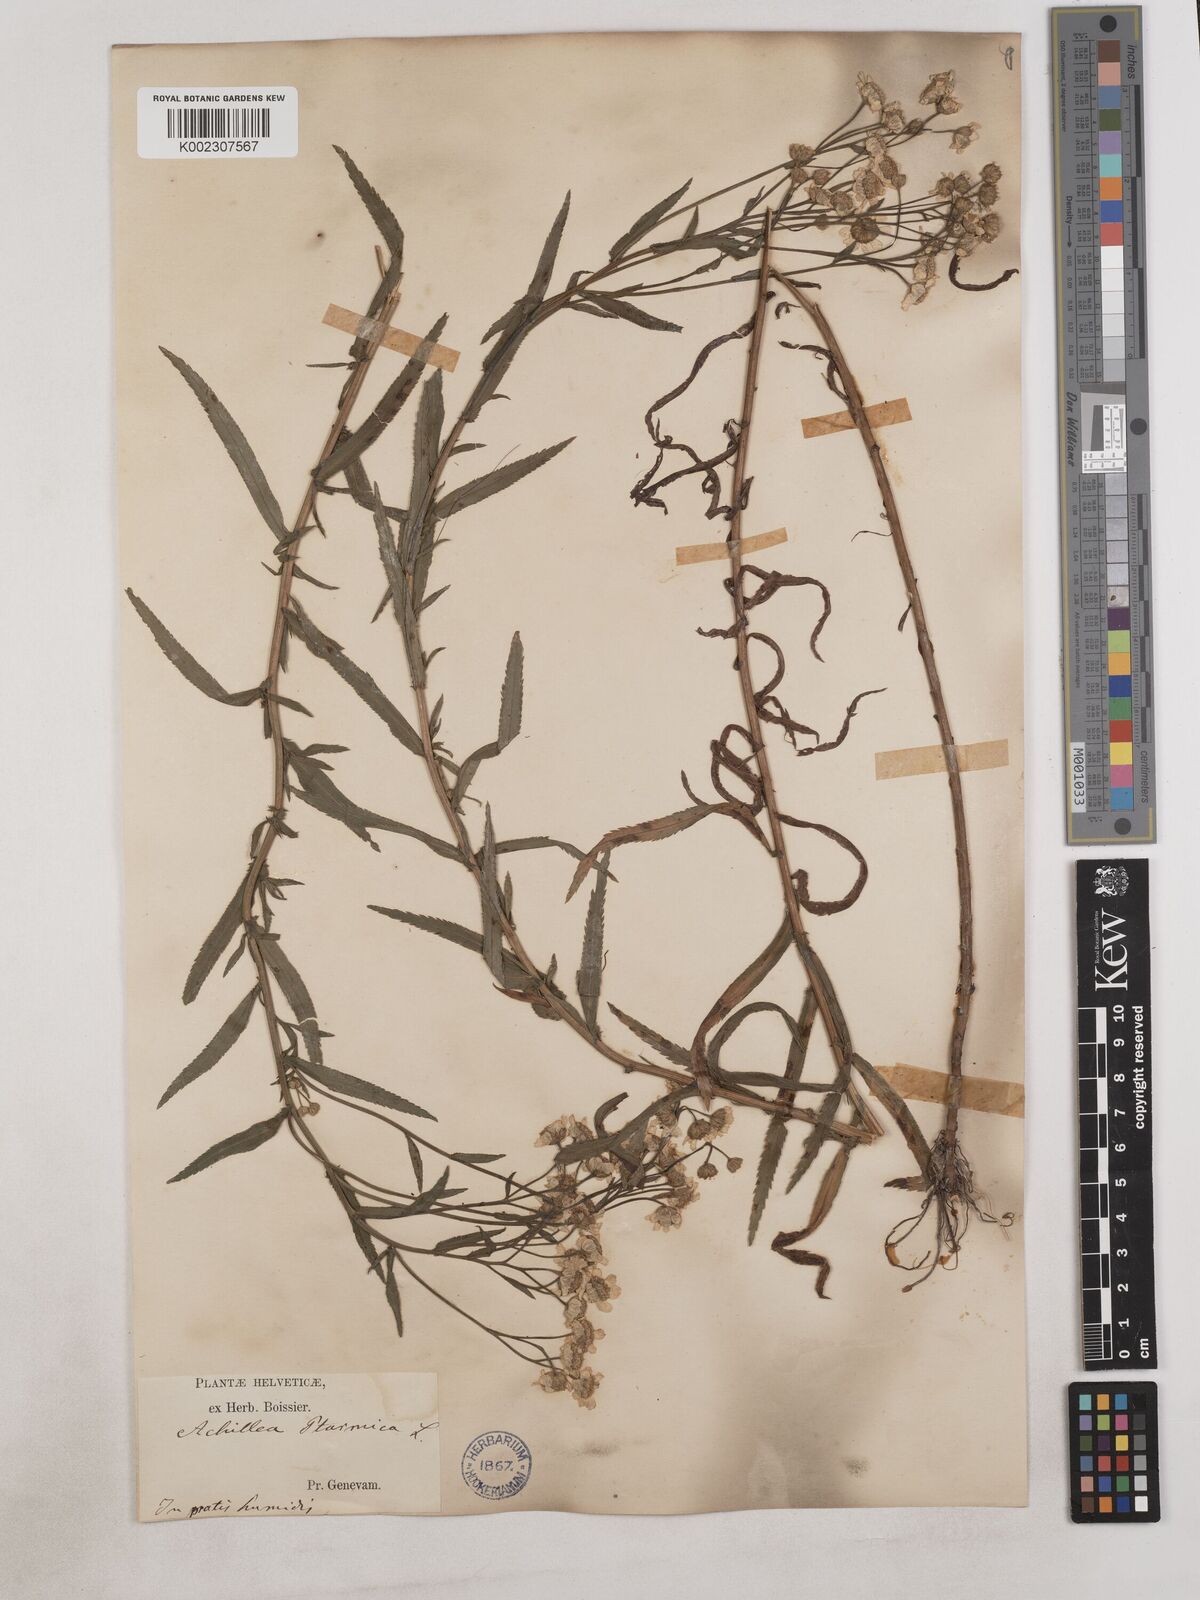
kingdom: Plantae
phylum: Tracheophyta
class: Magnoliopsida
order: Asterales
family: Asteraceae
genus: Achillea
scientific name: Achillea serrata
